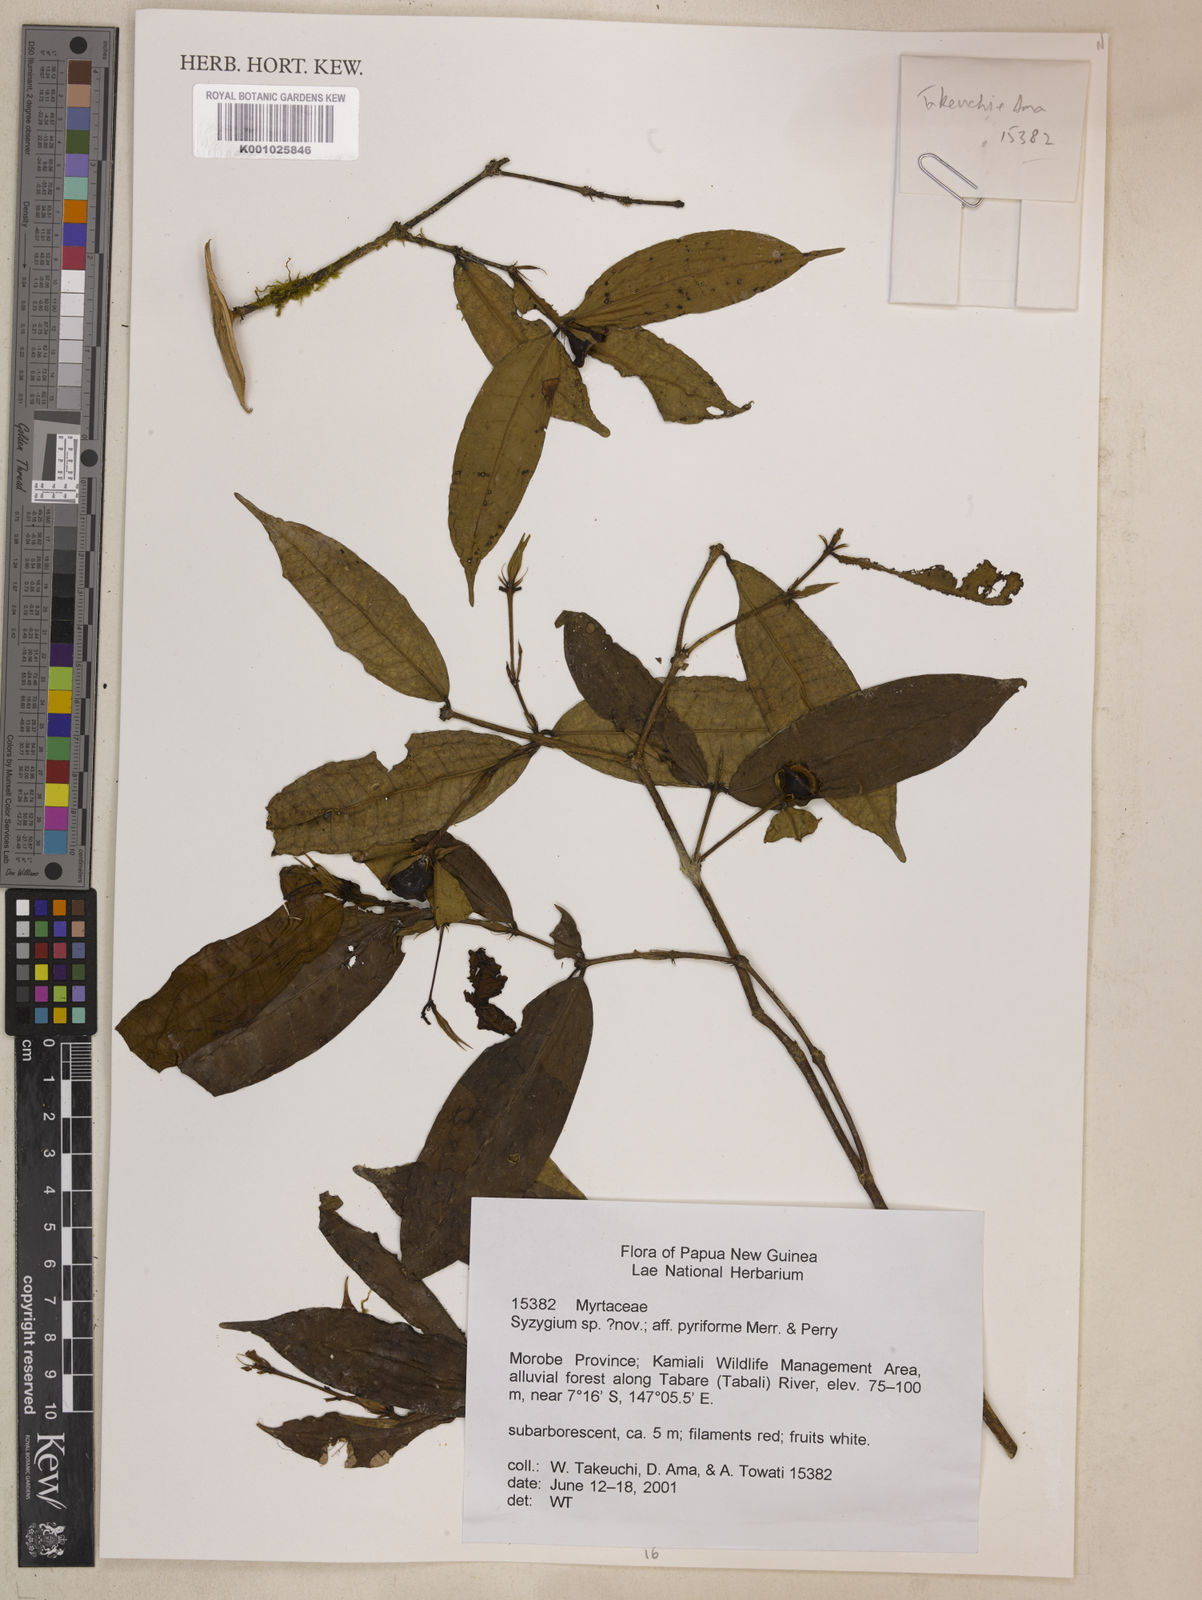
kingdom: Plantae
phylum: Tracheophyta
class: Magnoliopsida
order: Myrtales
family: Myrtaceae
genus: Syzygium
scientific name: Syzygium
